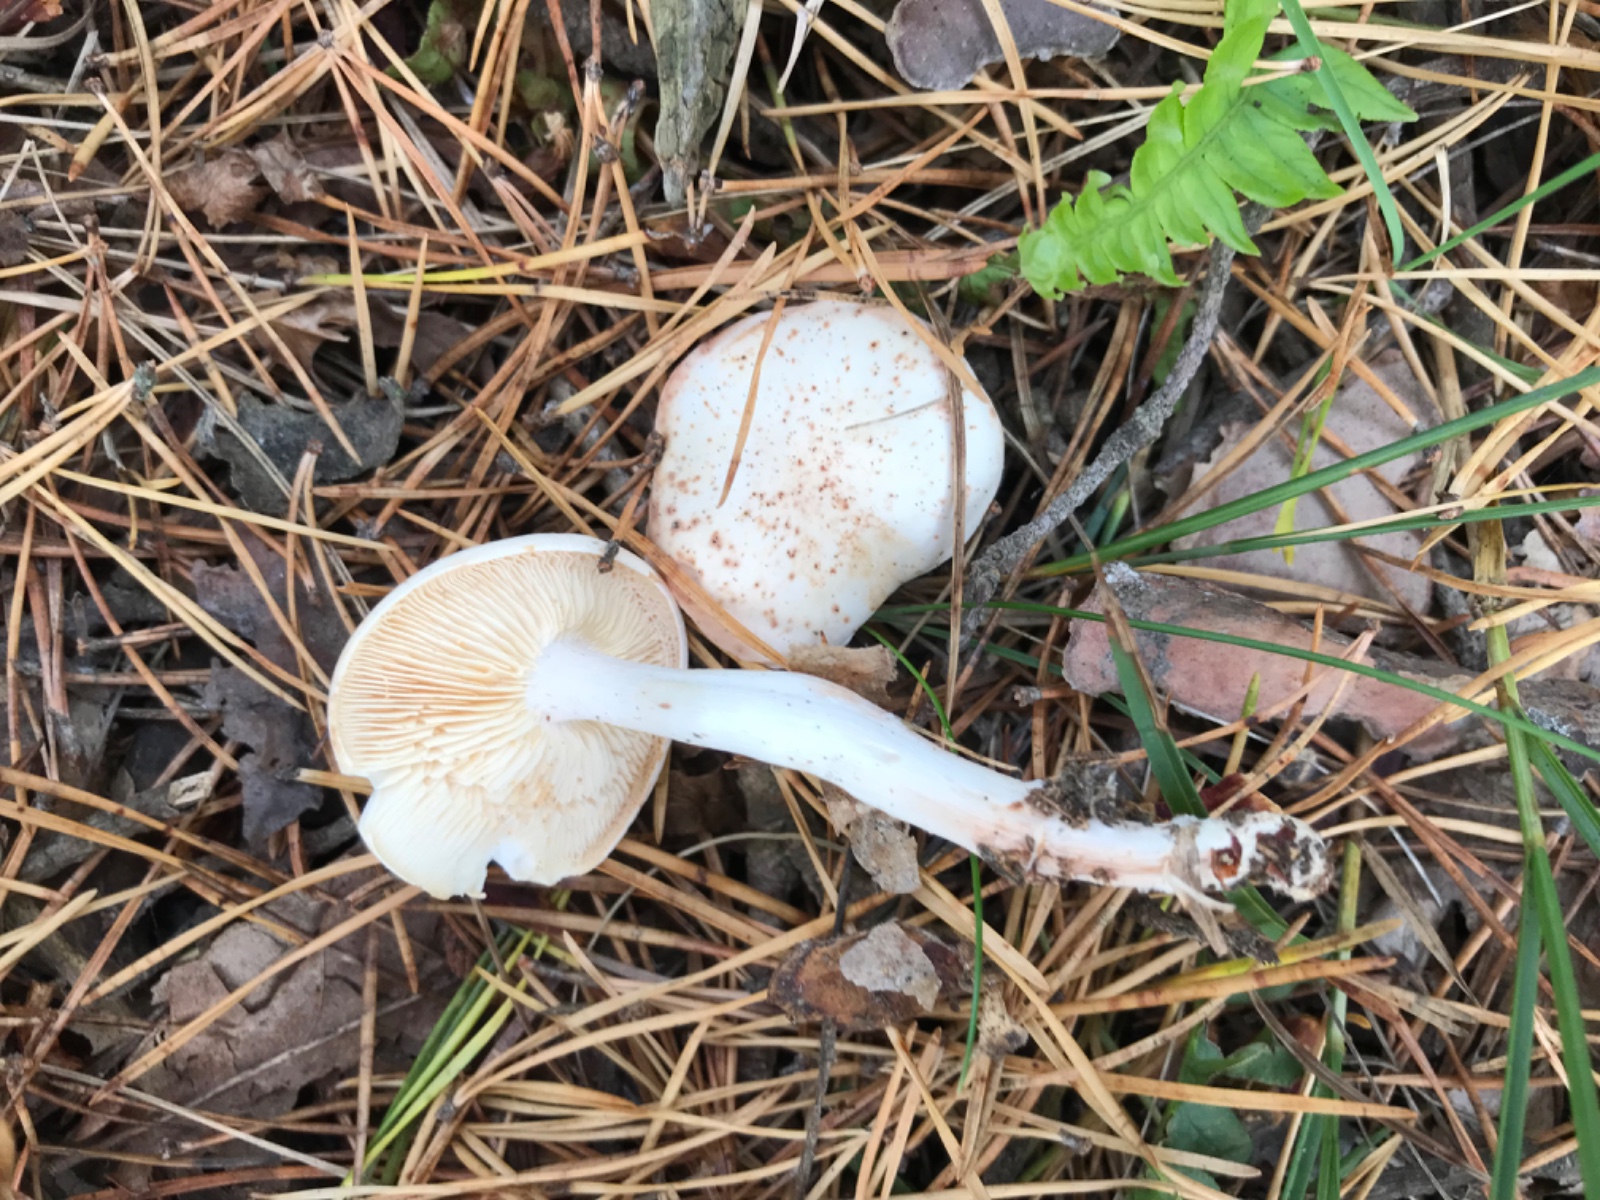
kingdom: Fungi
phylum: Basidiomycota
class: Agaricomycetes
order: Agaricales
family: Omphalotaceae
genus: Rhodocollybia
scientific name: Rhodocollybia maculata
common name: plettet fladhat
